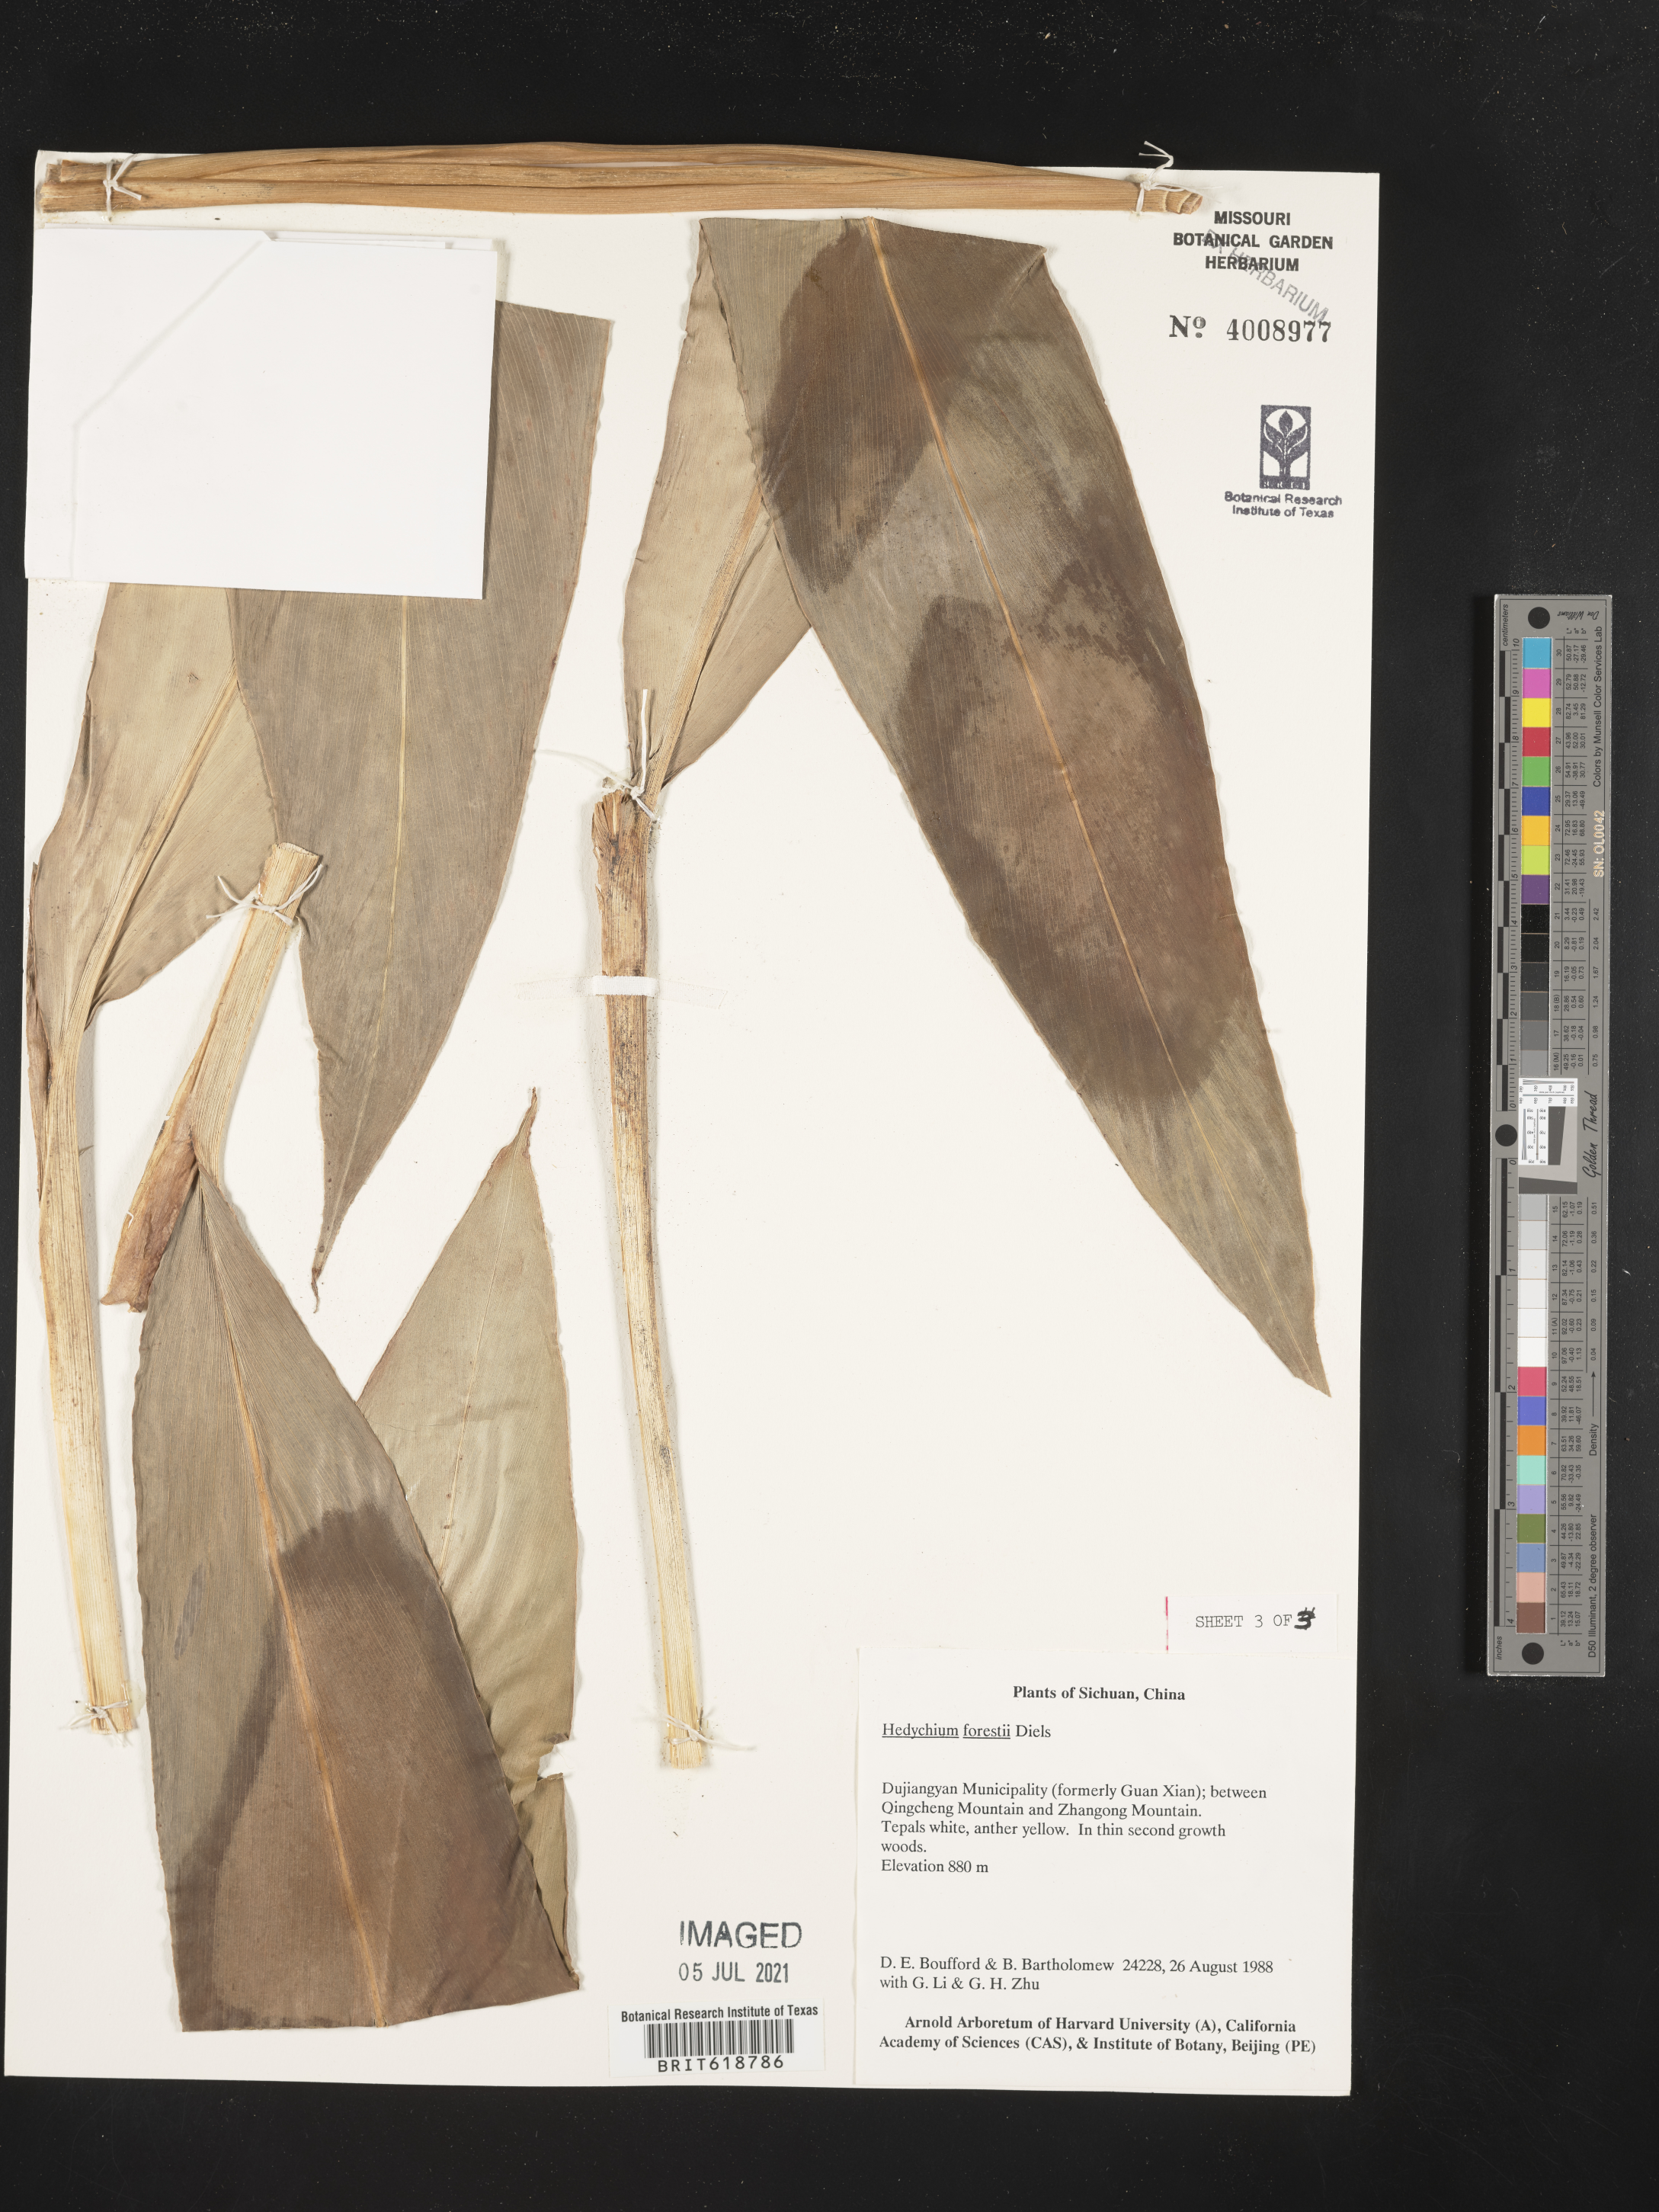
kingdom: Plantae
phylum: Tracheophyta
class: Liliopsida
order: Zingiberales
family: Zingiberaceae
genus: Hedychium
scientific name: Hedychium forrestii
